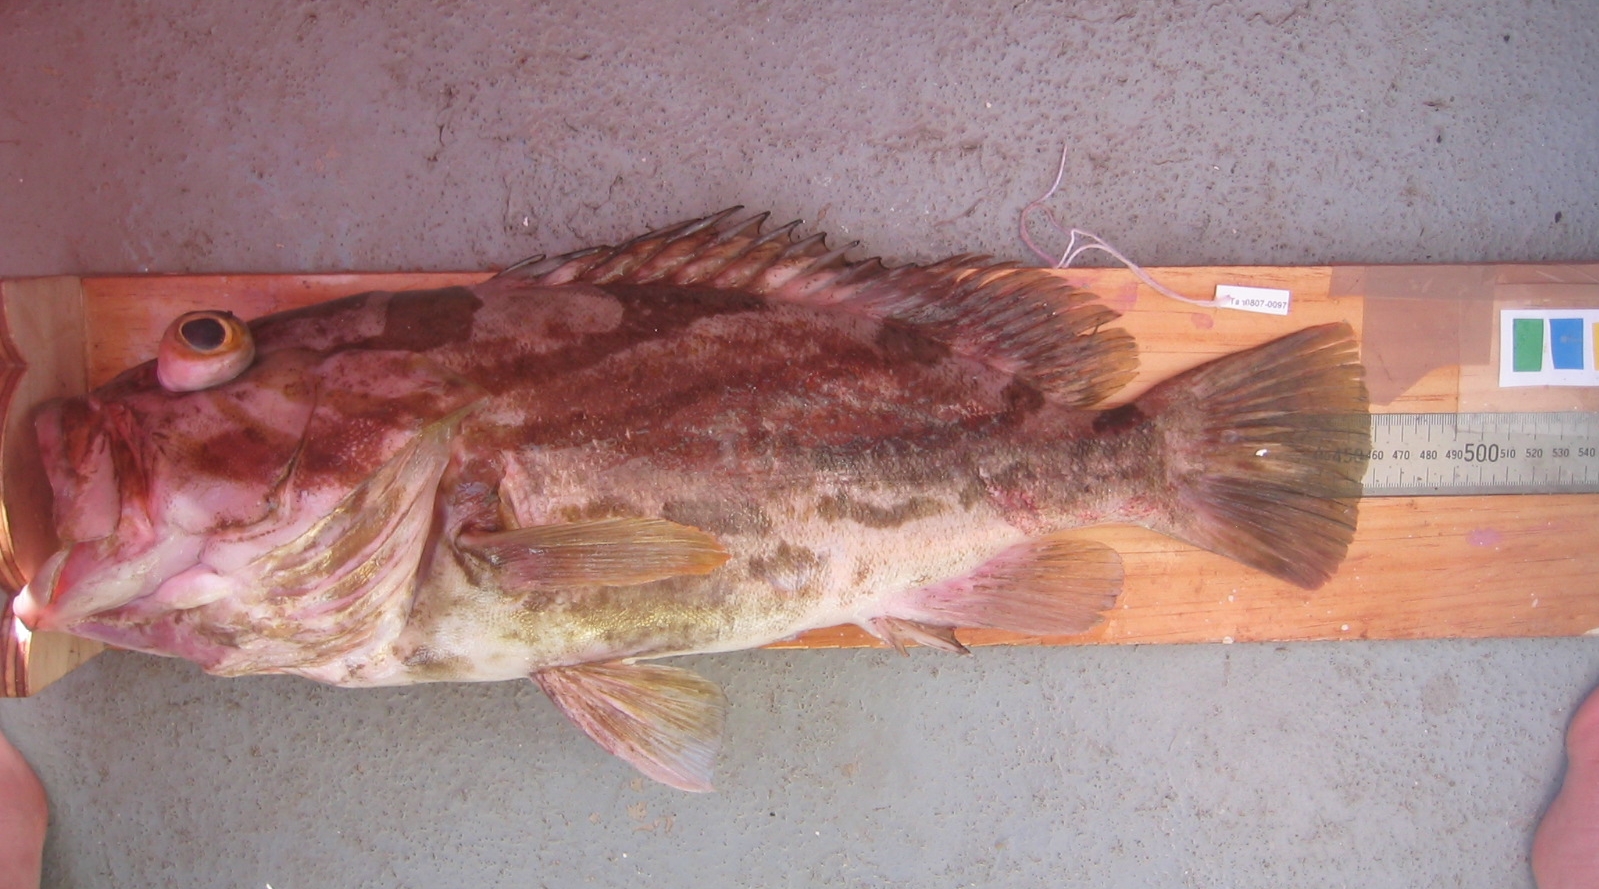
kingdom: Animalia
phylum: Chordata
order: Perciformes
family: Serranidae
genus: Epinephelus
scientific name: Epinephelus morrhua
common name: Comet grouper
